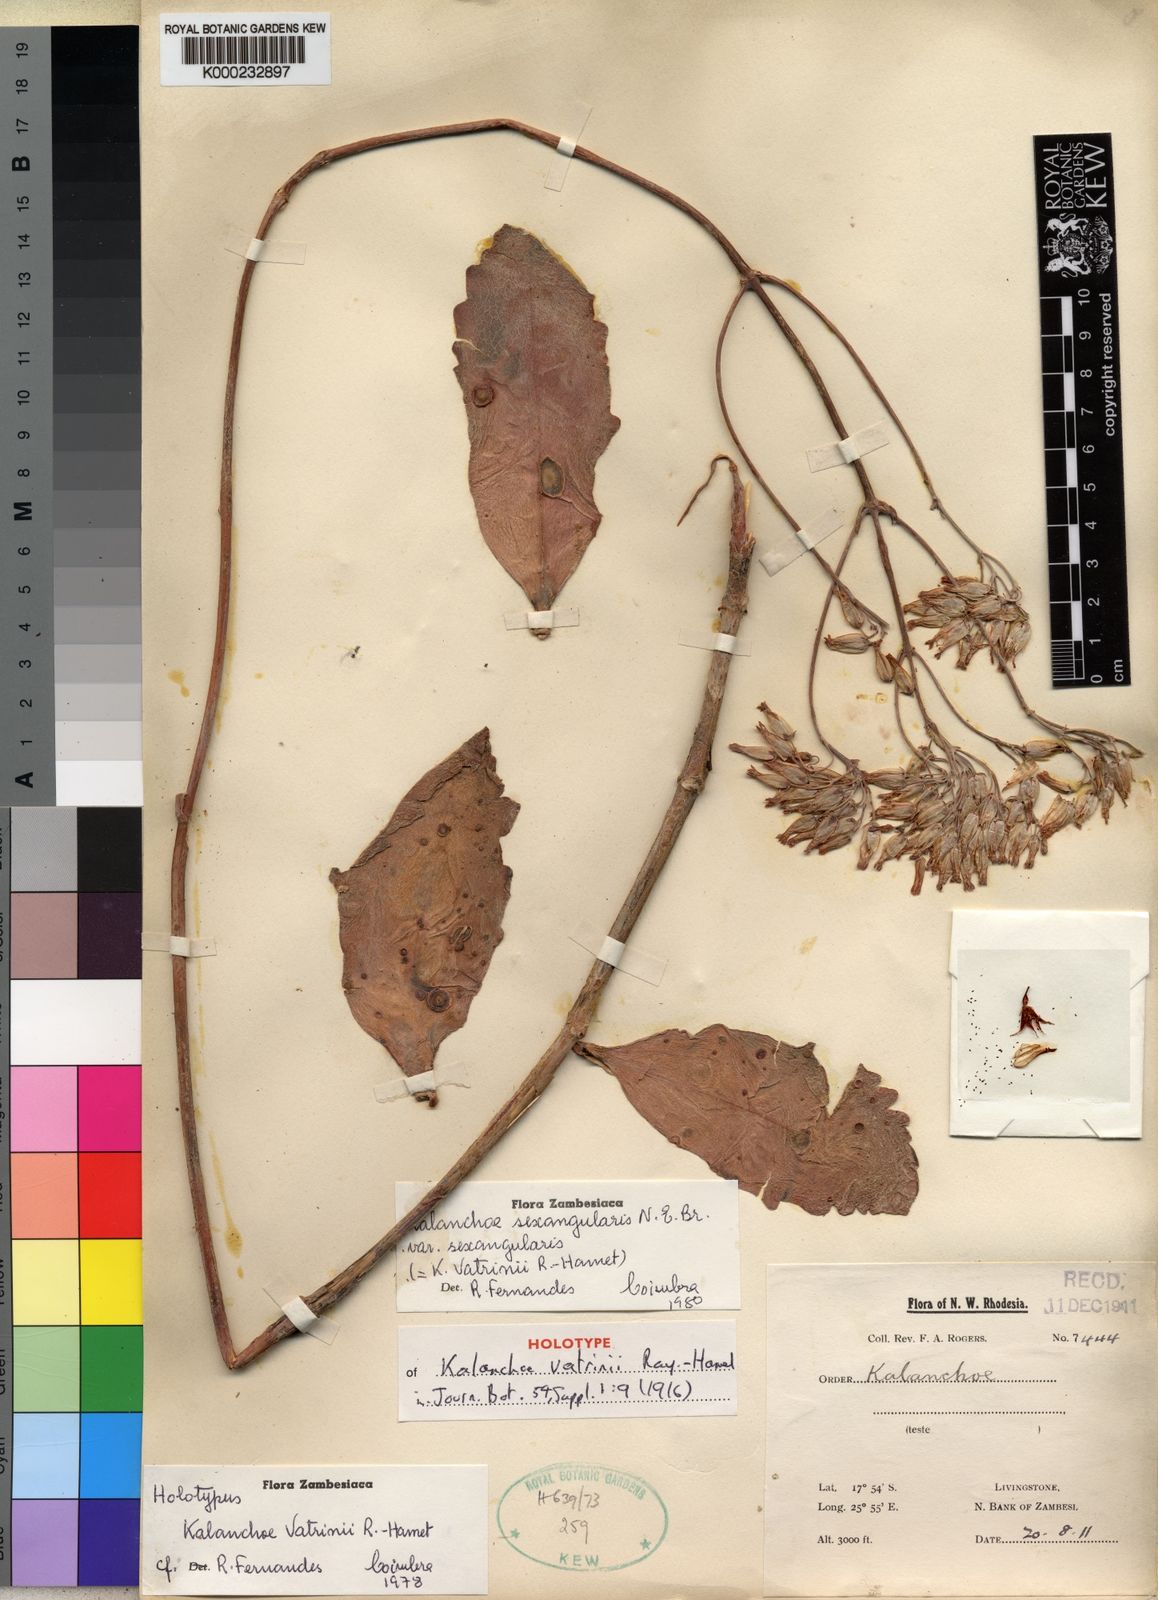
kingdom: Plantae
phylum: Tracheophyta
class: Magnoliopsida
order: Saxifragales
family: Crassulaceae
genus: Kalanchoe
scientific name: Kalanchoe sexangularis
